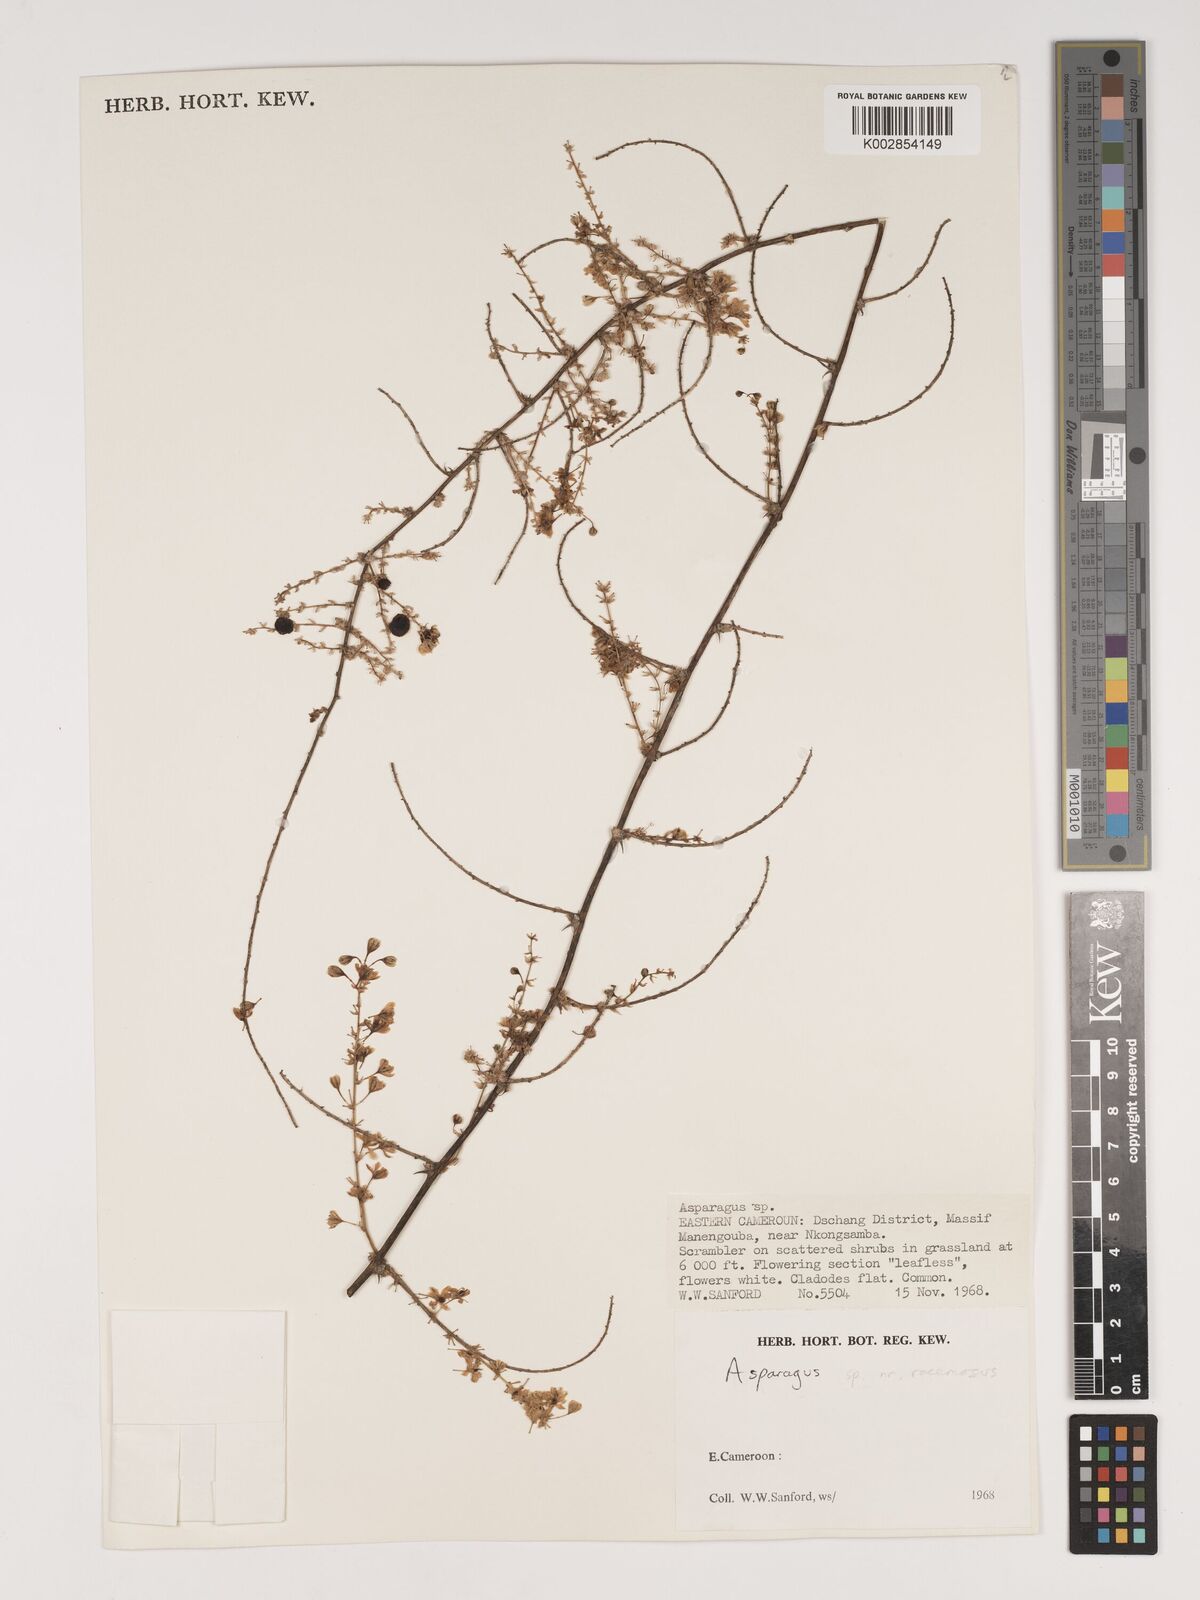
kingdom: Plantae
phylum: Tracheophyta
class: Liliopsida
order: Asparagales
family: Asparagaceae
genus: Asparagus
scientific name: Asparagus racemosus
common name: Asparagus-fern
